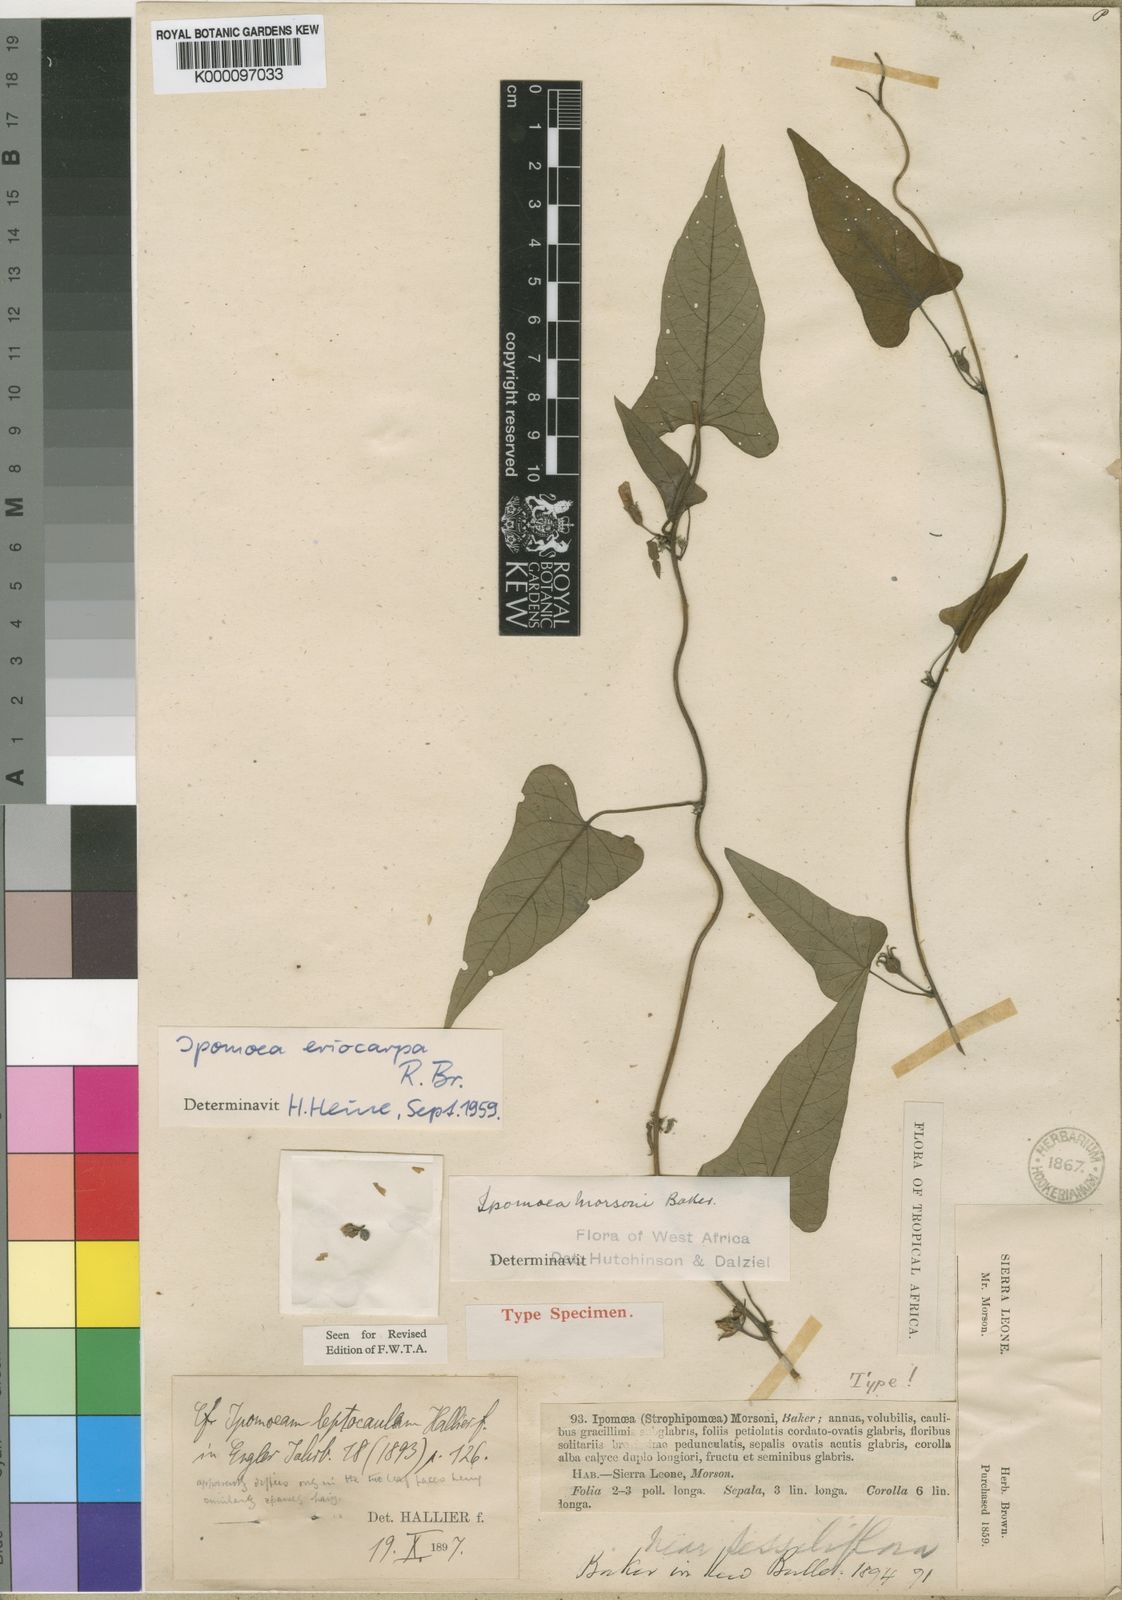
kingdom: Plantae
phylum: Tracheophyta
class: Magnoliopsida
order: Solanales
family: Convolvulaceae
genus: Ipomoea
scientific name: Ipomoea eriocarpa
